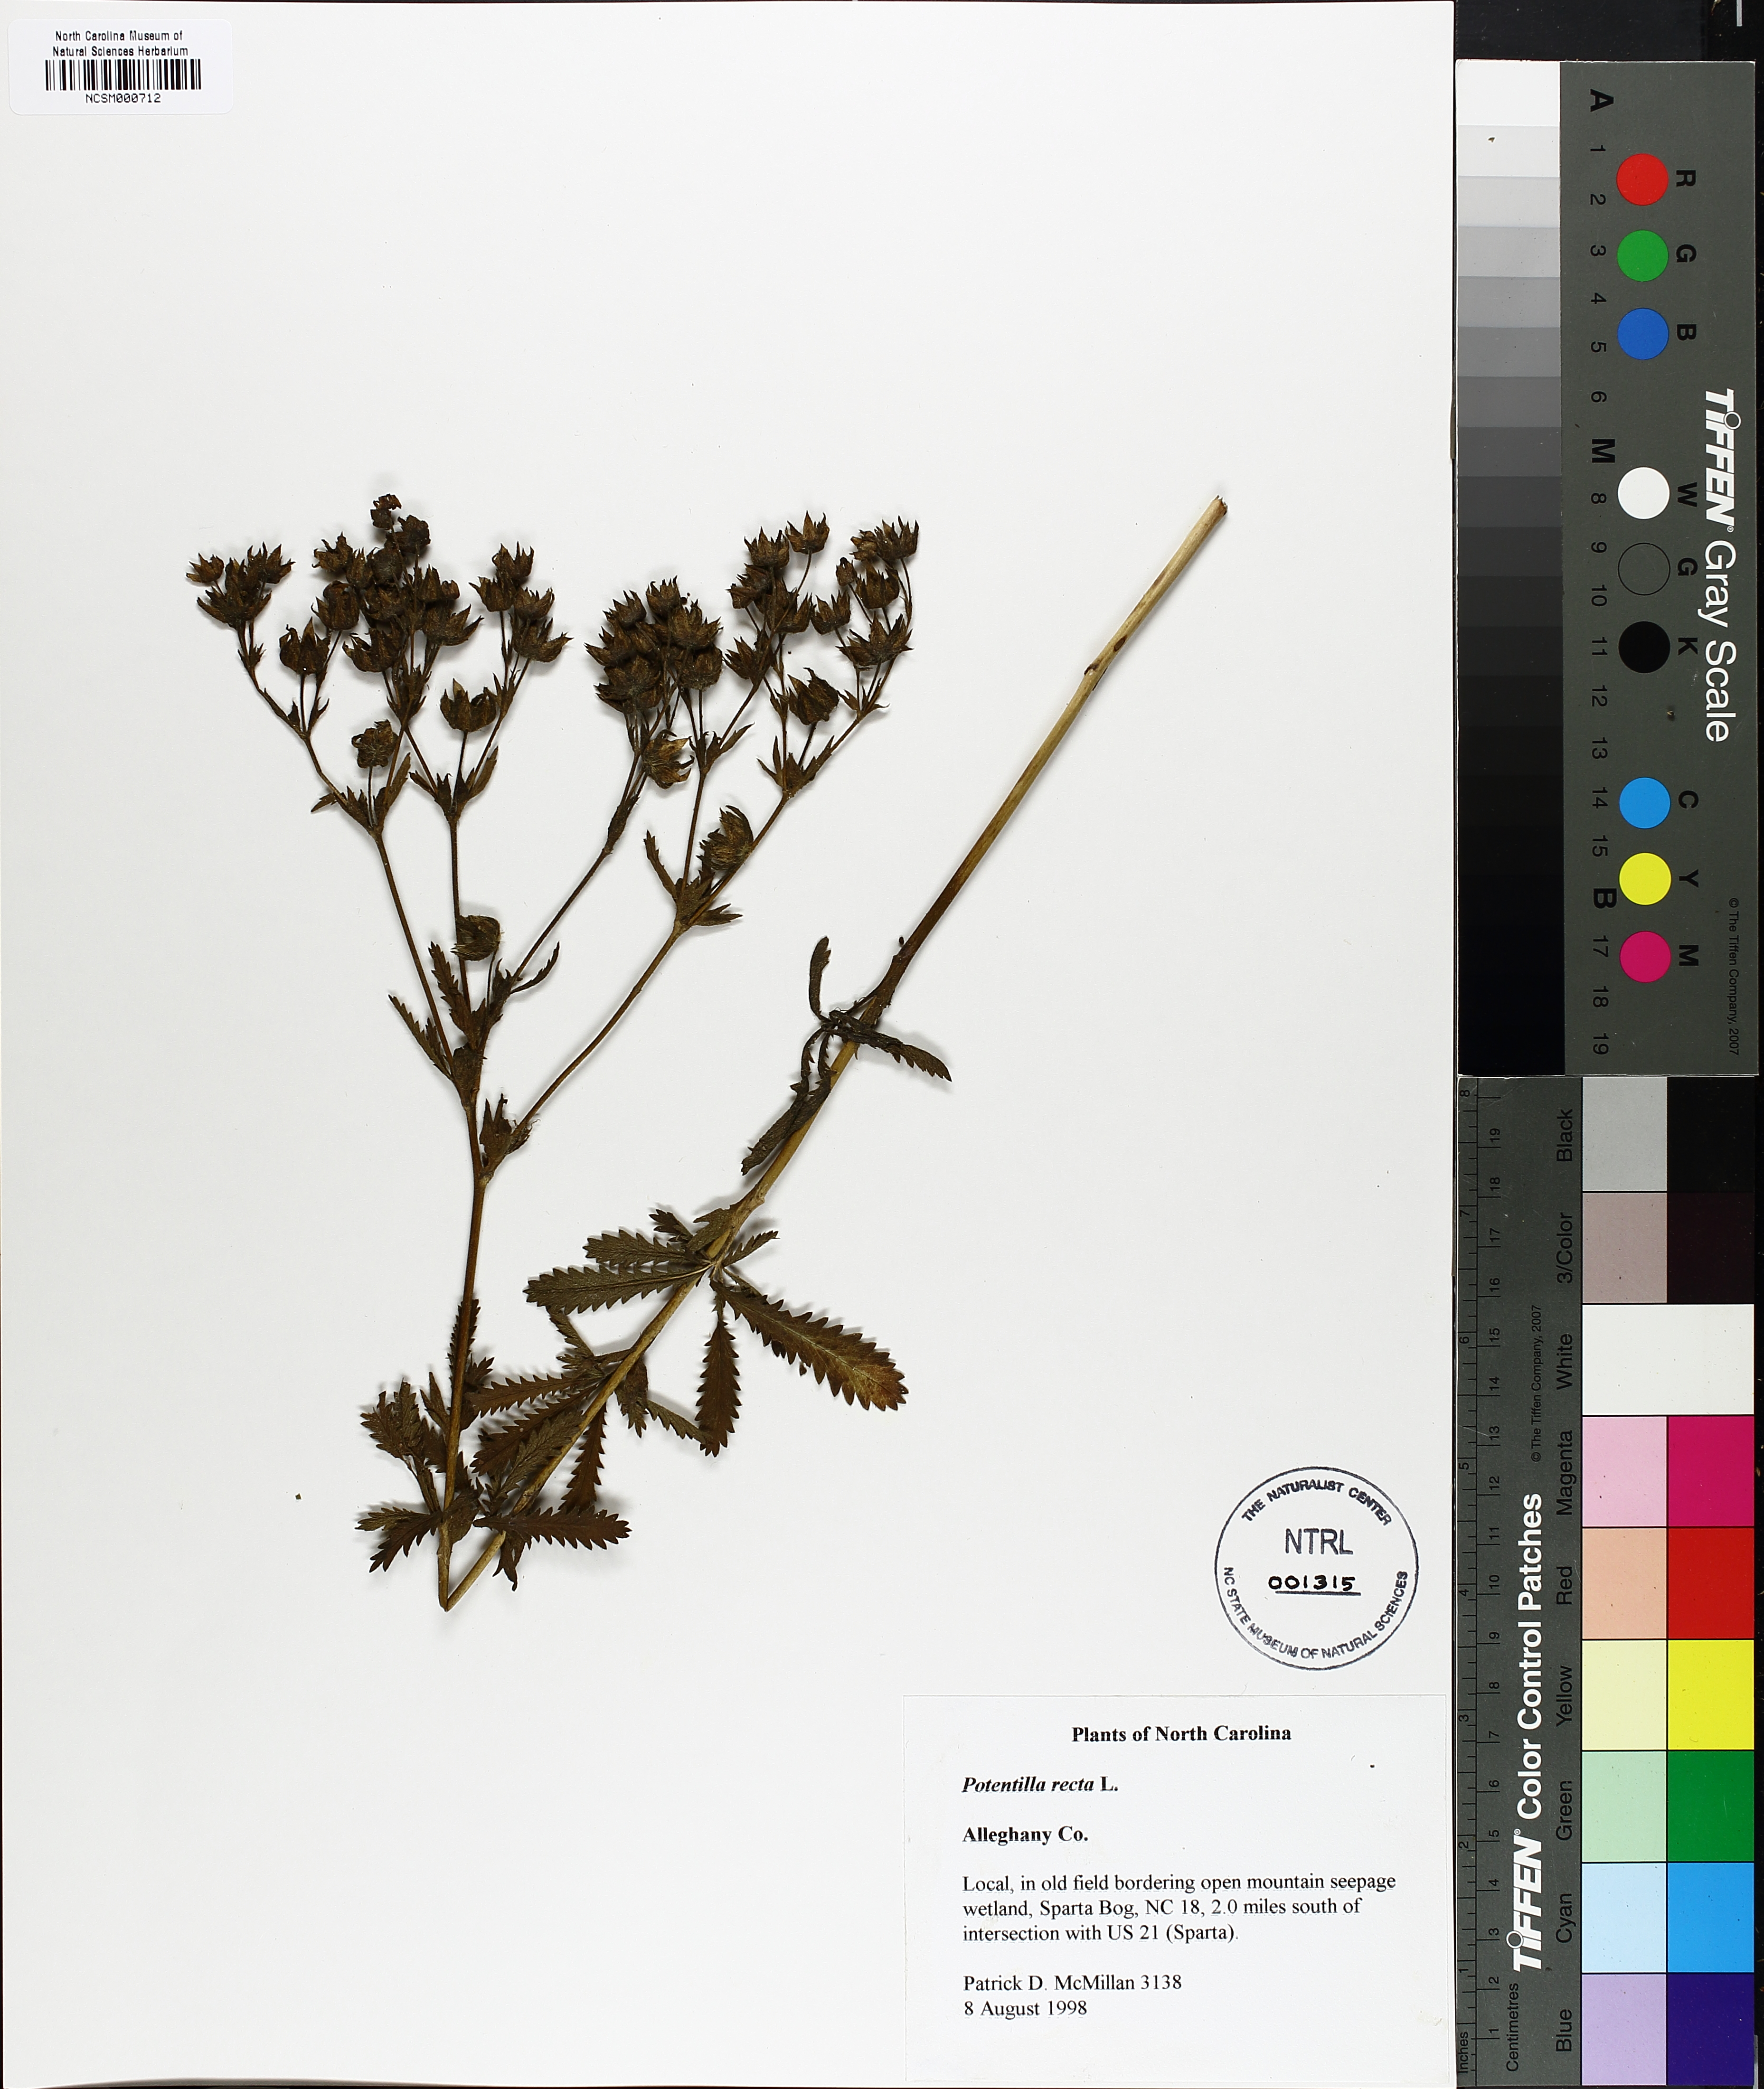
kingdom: Plantae
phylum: Tracheophyta
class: Magnoliopsida
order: Rosales
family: Rosaceae
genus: Potentilla
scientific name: Potentilla recta
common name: Sulphur cinquefoil
